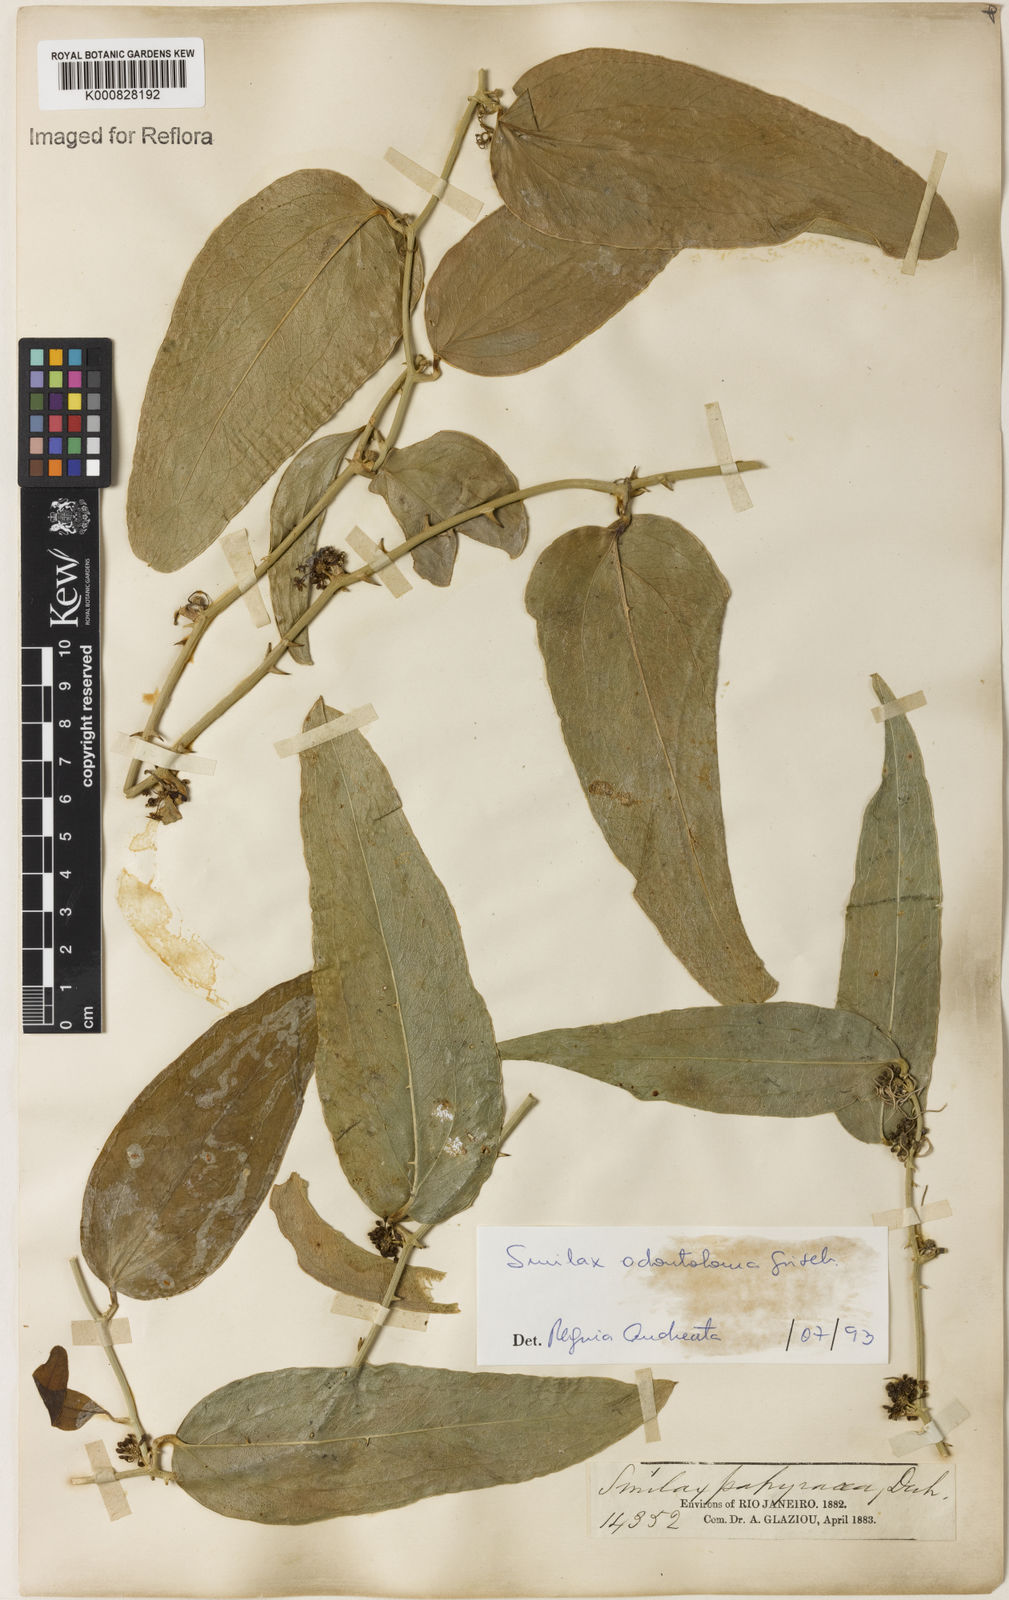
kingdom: Plantae
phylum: Tracheophyta
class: Liliopsida
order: Liliales
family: Smilacaceae
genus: Smilax
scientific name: Smilax
